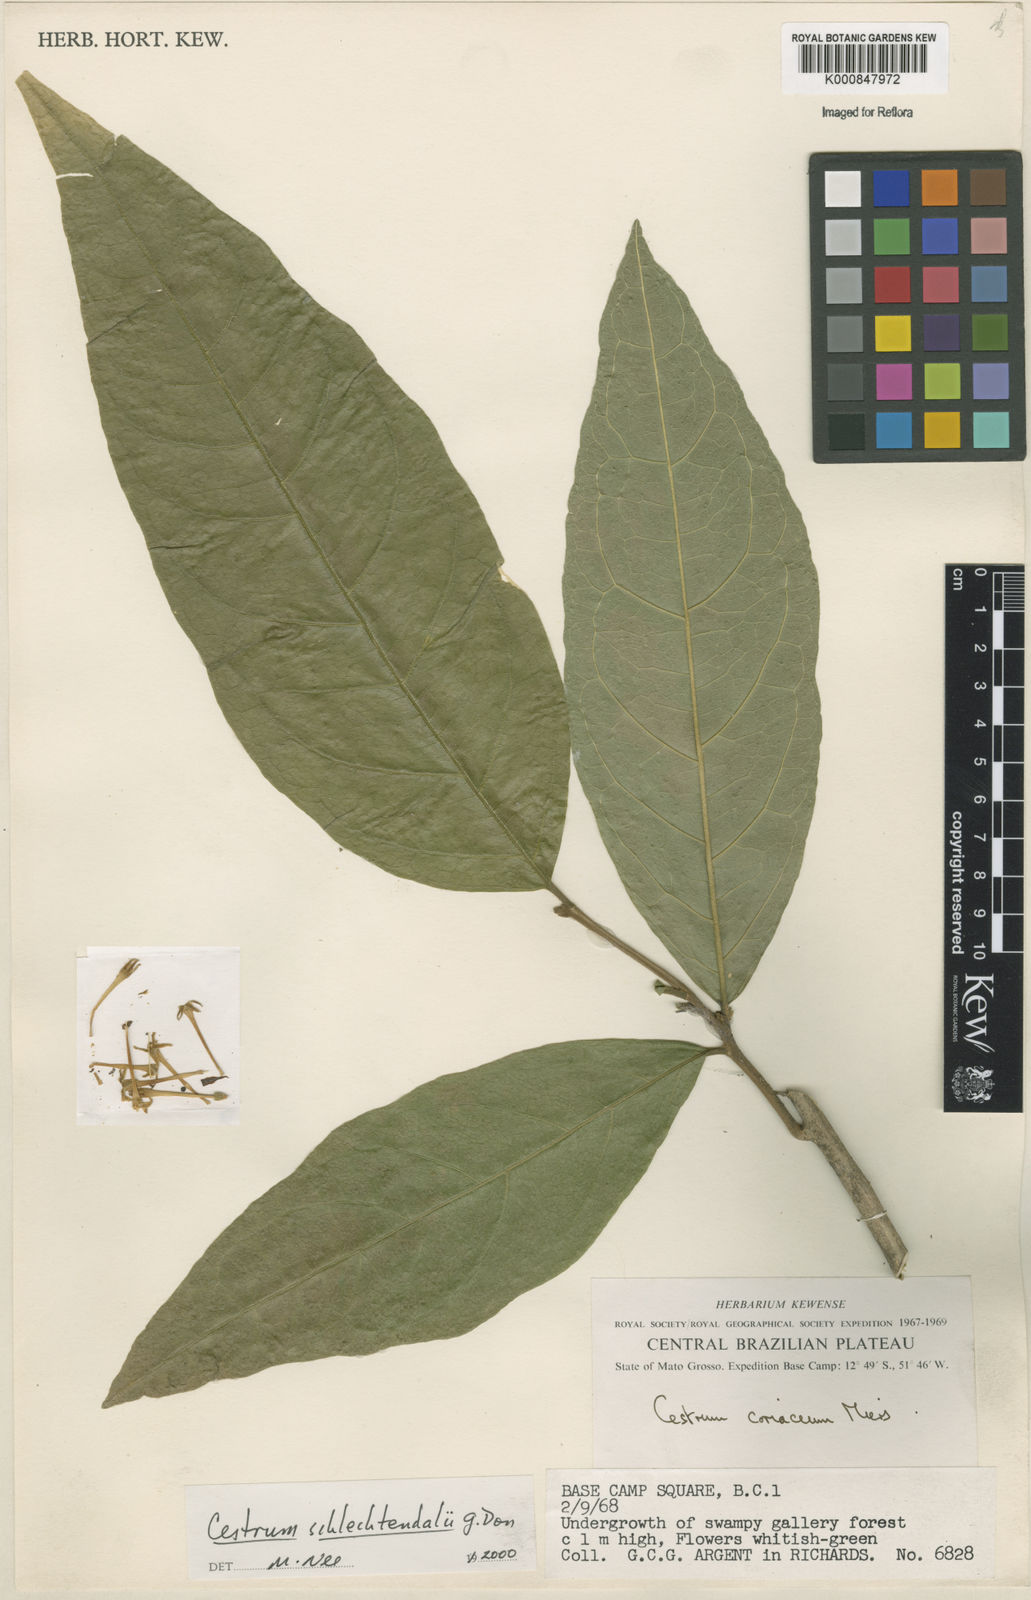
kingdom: Plantae
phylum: Tracheophyta
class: Magnoliopsida
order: Solanales
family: Solanaceae
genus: Cestrum
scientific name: Cestrum schlechtendalii
